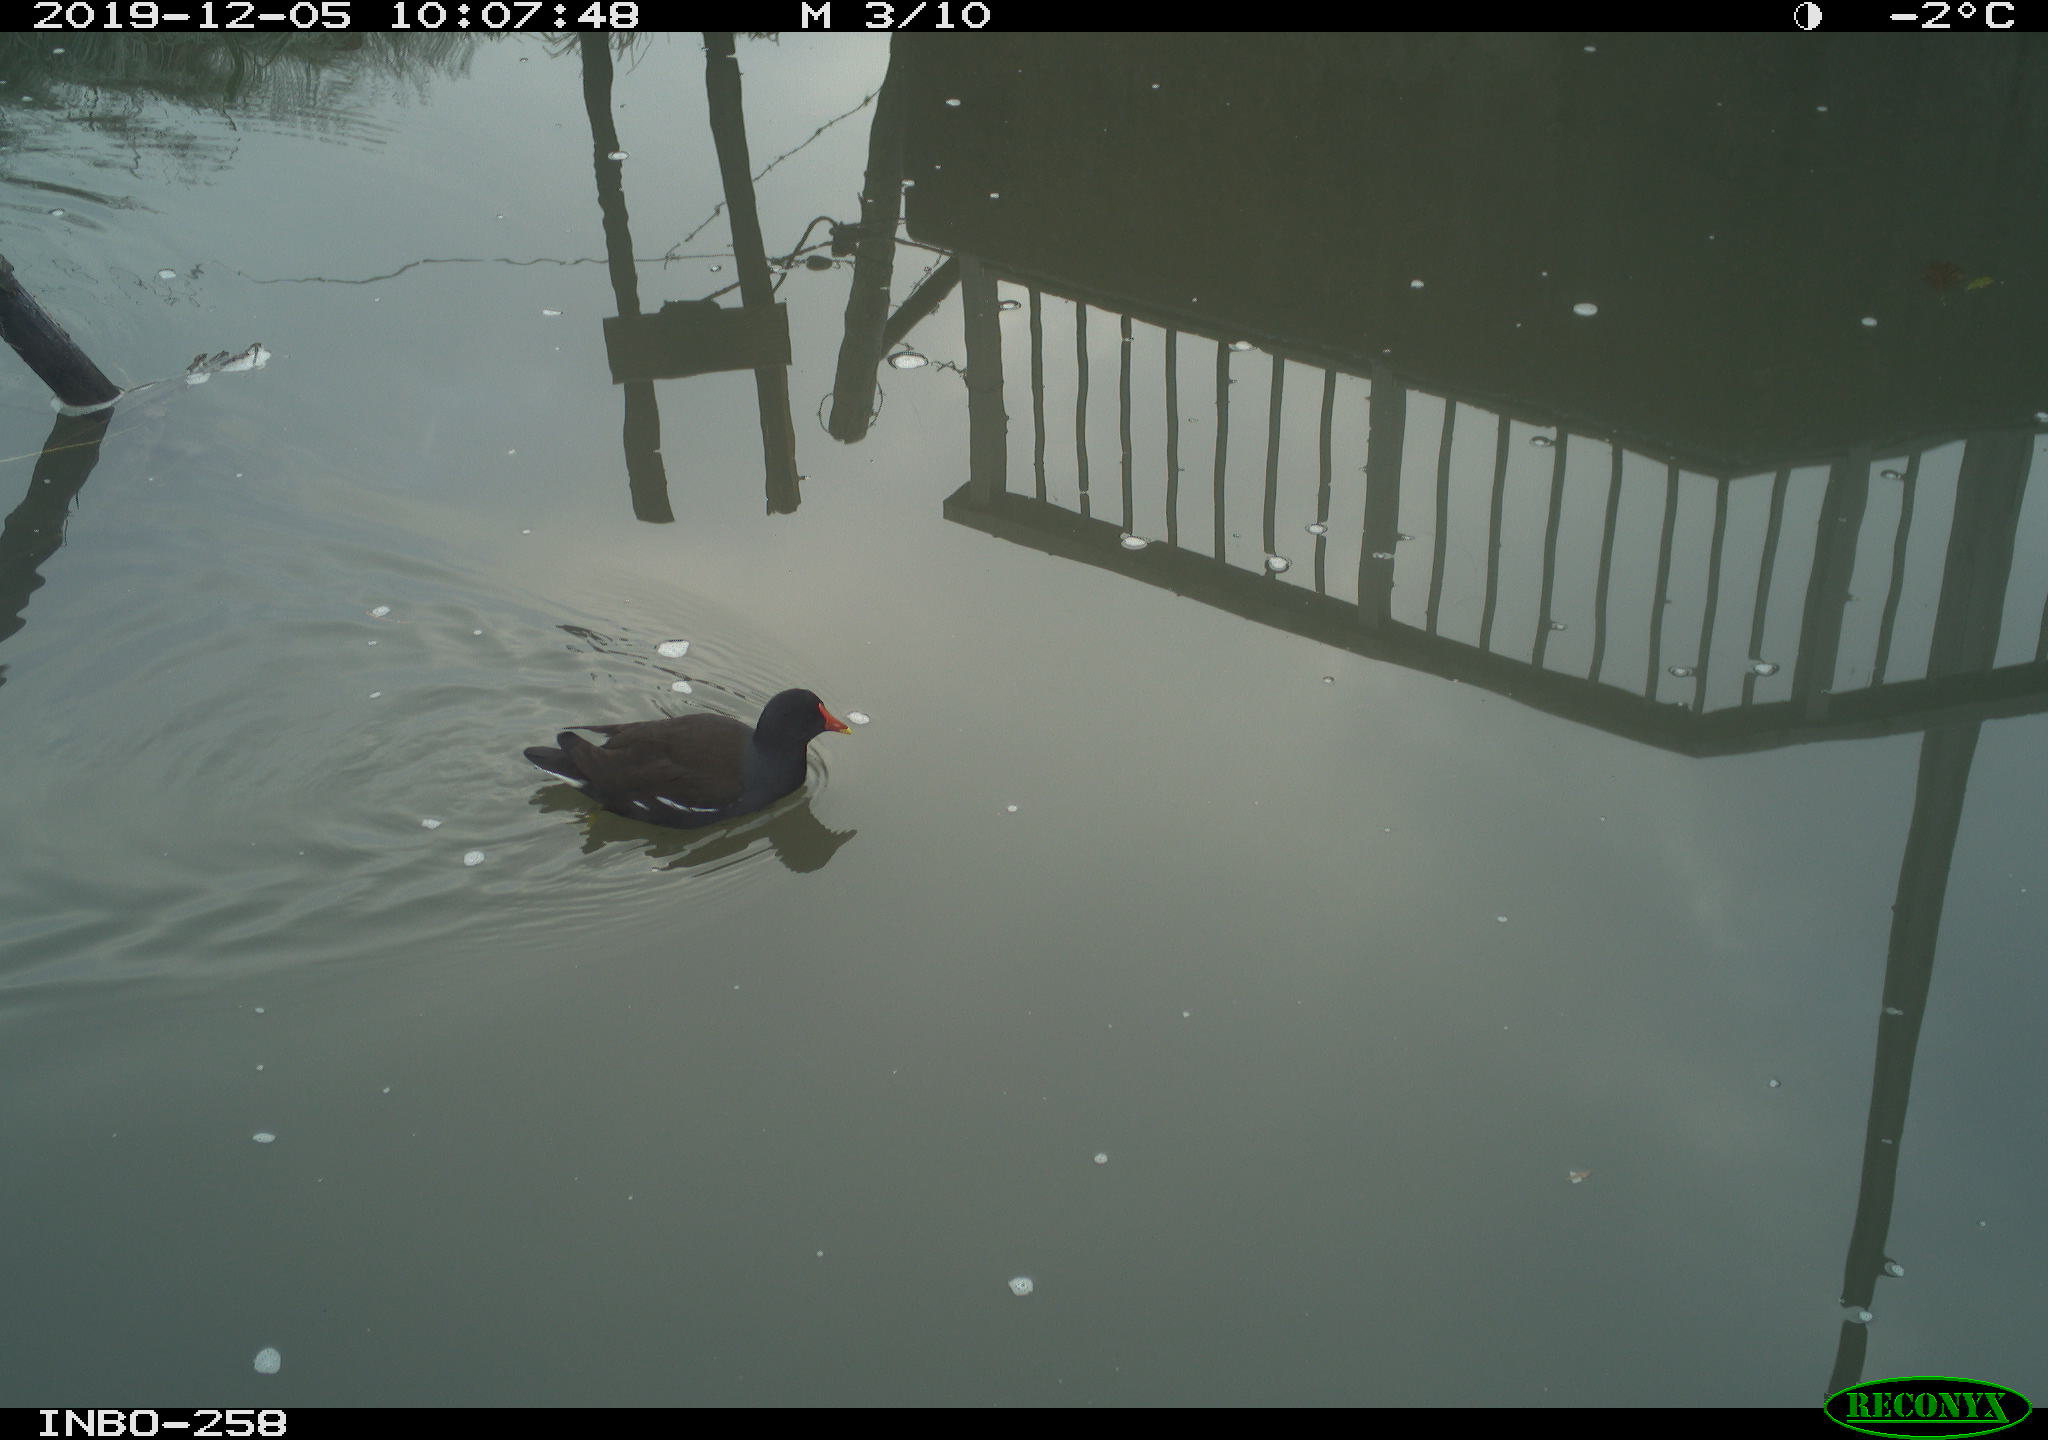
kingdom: Animalia
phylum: Chordata
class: Aves
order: Gruiformes
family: Rallidae
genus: Gallinula
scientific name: Gallinula chloropus
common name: Common moorhen
